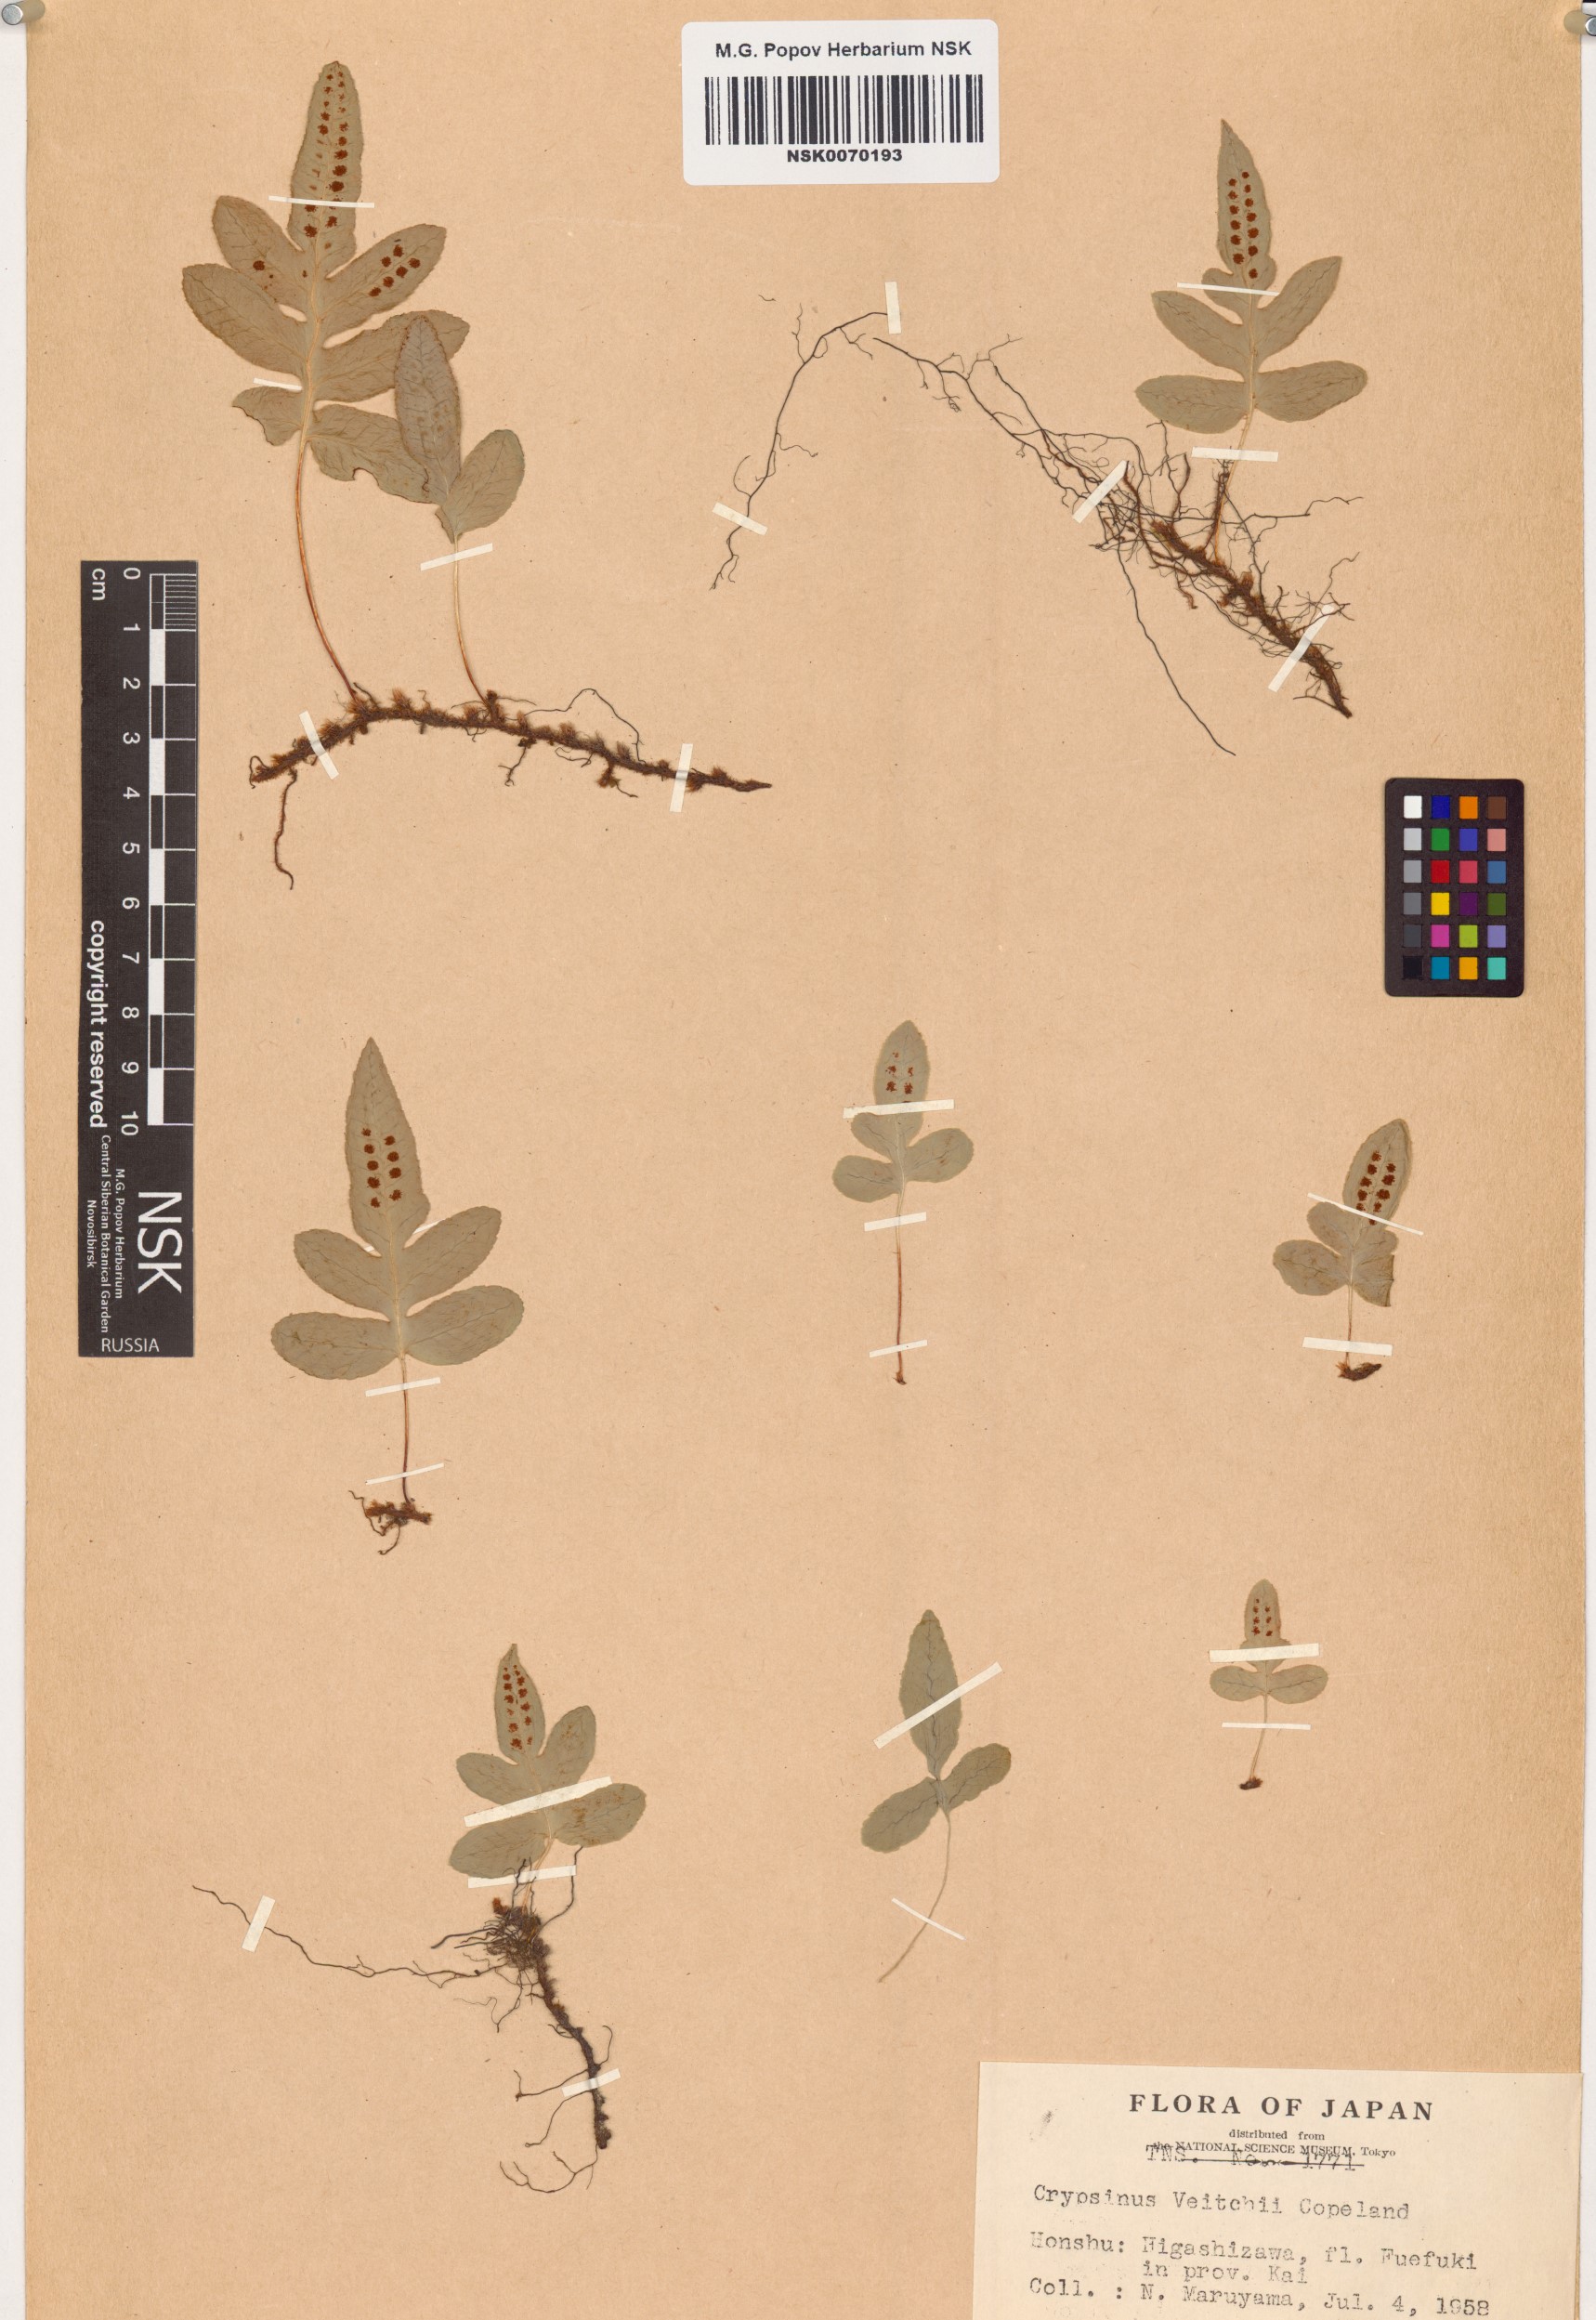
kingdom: Plantae
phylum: Tracheophyta
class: Polypodiopsida
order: Polypodiales
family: Polypodiaceae
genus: Selliguea
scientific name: Selliguea veitchii
